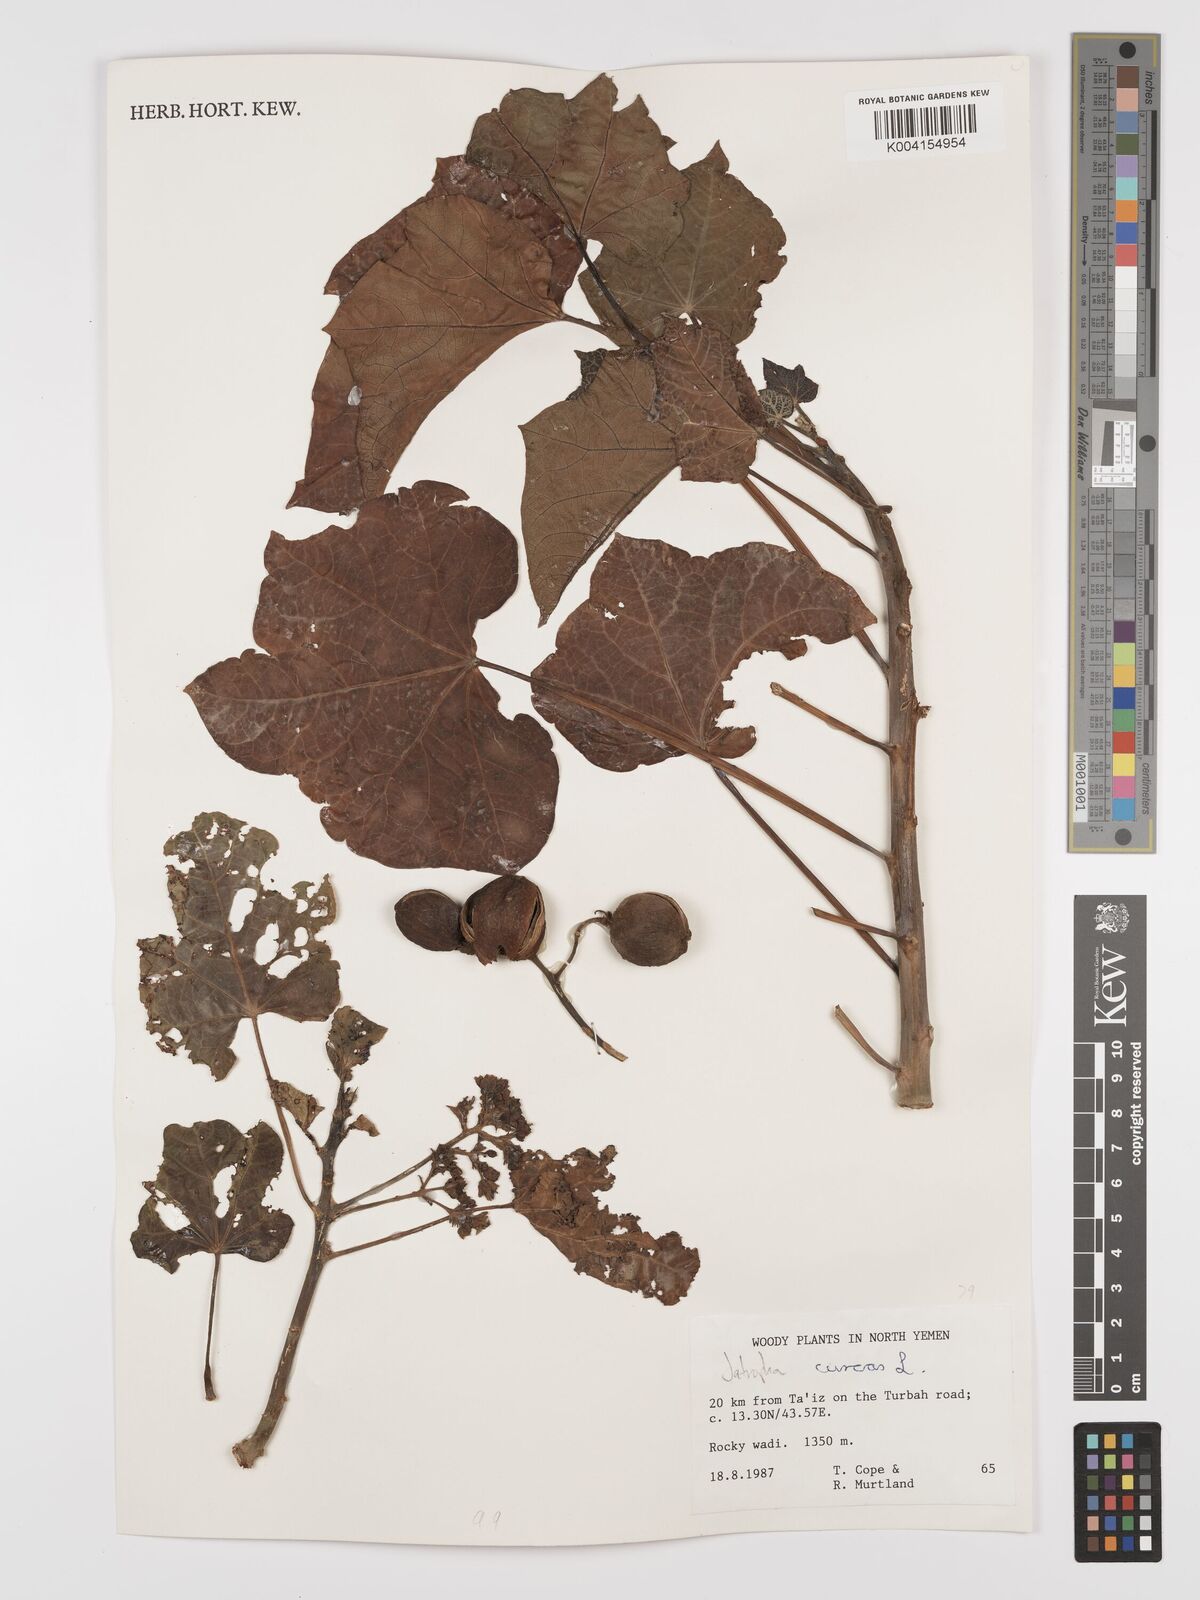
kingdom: Plantae
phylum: Tracheophyta
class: Magnoliopsida
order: Malpighiales
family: Euphorbiaceae
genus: Jatropha
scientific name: Jatropha curcas
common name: Barbados nut
